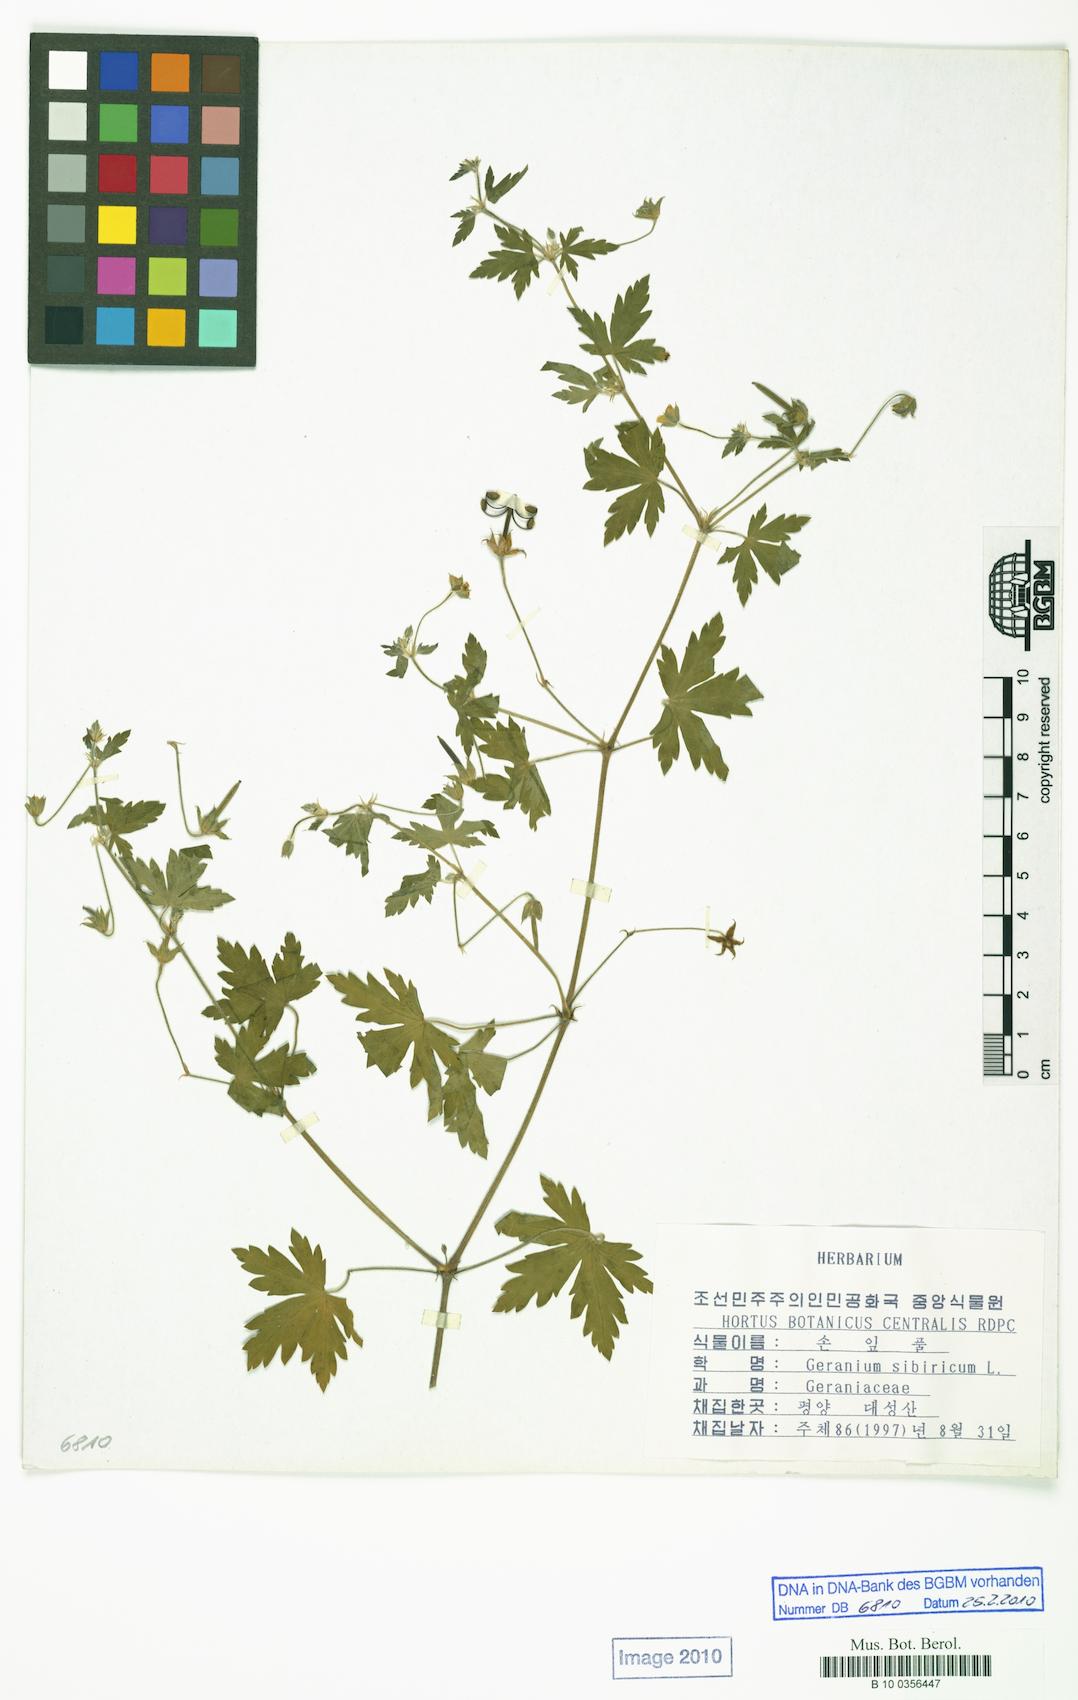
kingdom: Plantae
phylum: Tracheophyta
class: Magnoliopsida
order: Geraniales
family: Geraniaceae
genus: Geranium
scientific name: Geranium sibiricum
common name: Siberian crane's-bill
